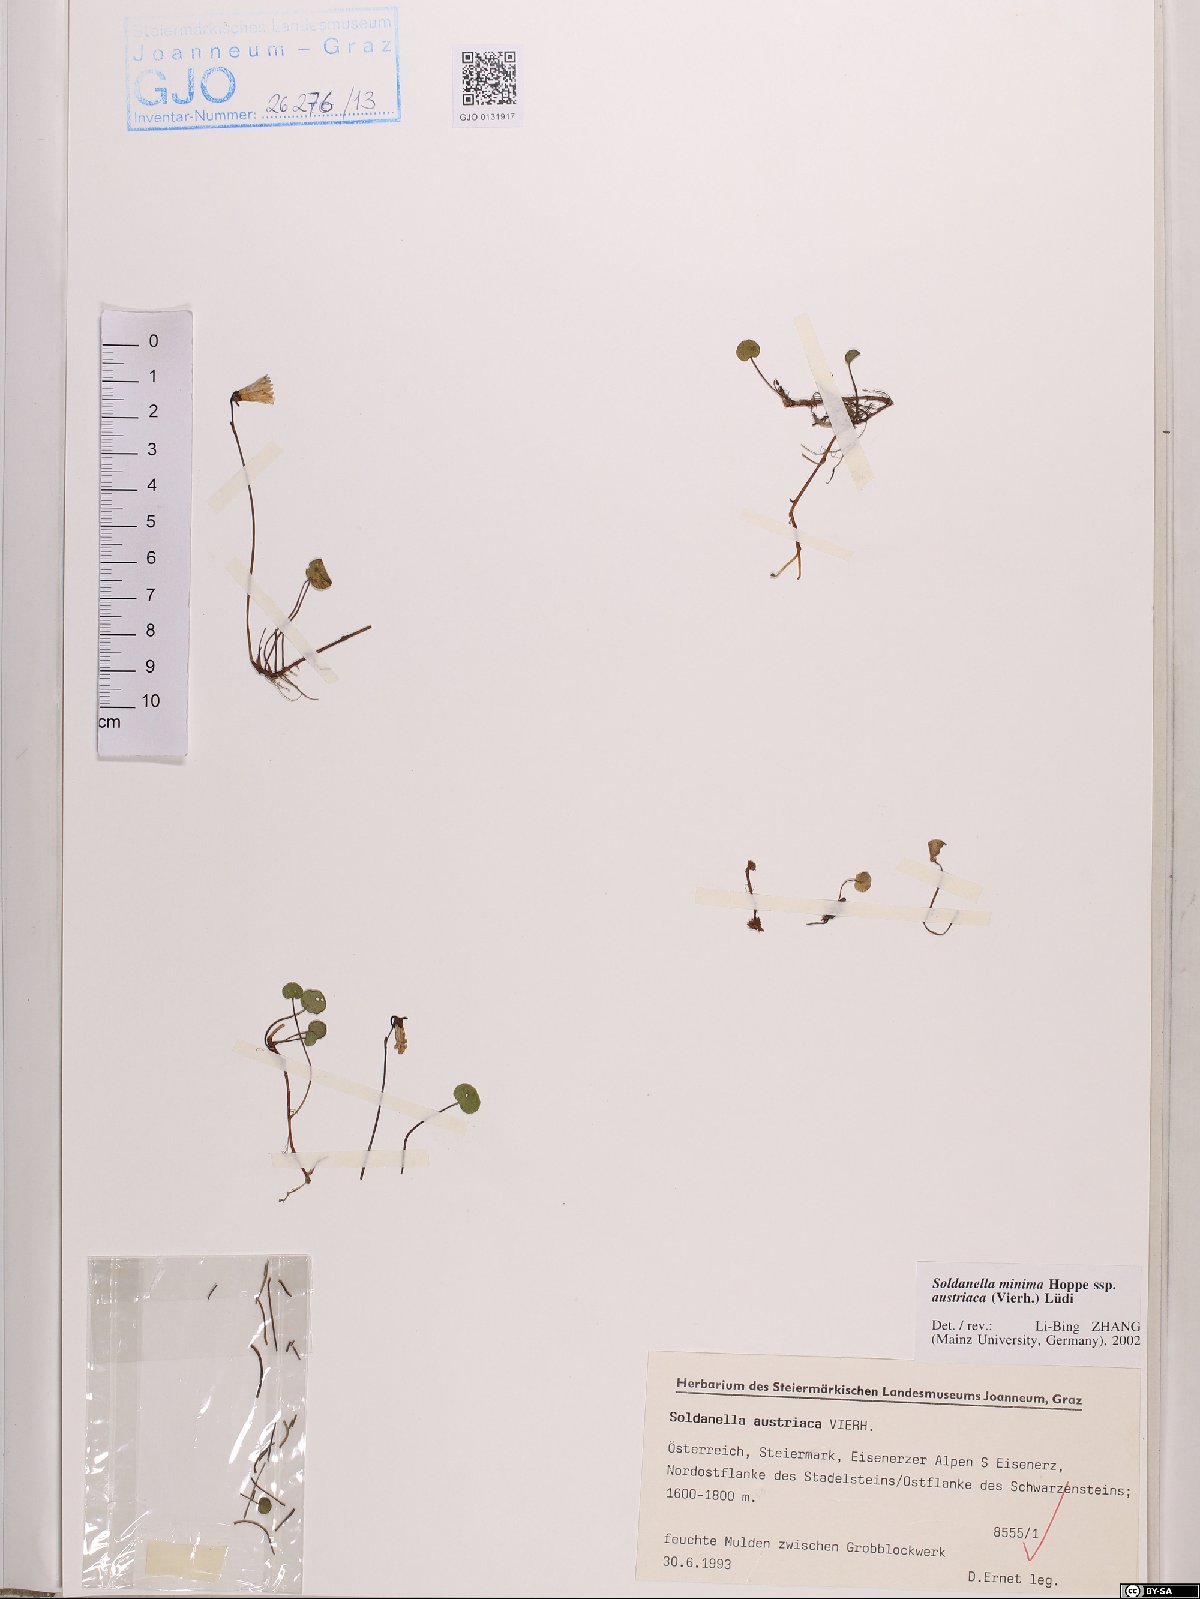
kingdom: Plantae
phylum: Tracheophyta
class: Magnoliopsida
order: Ericales
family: Primulaceae
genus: Soldanella
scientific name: Soldanella austriaca
